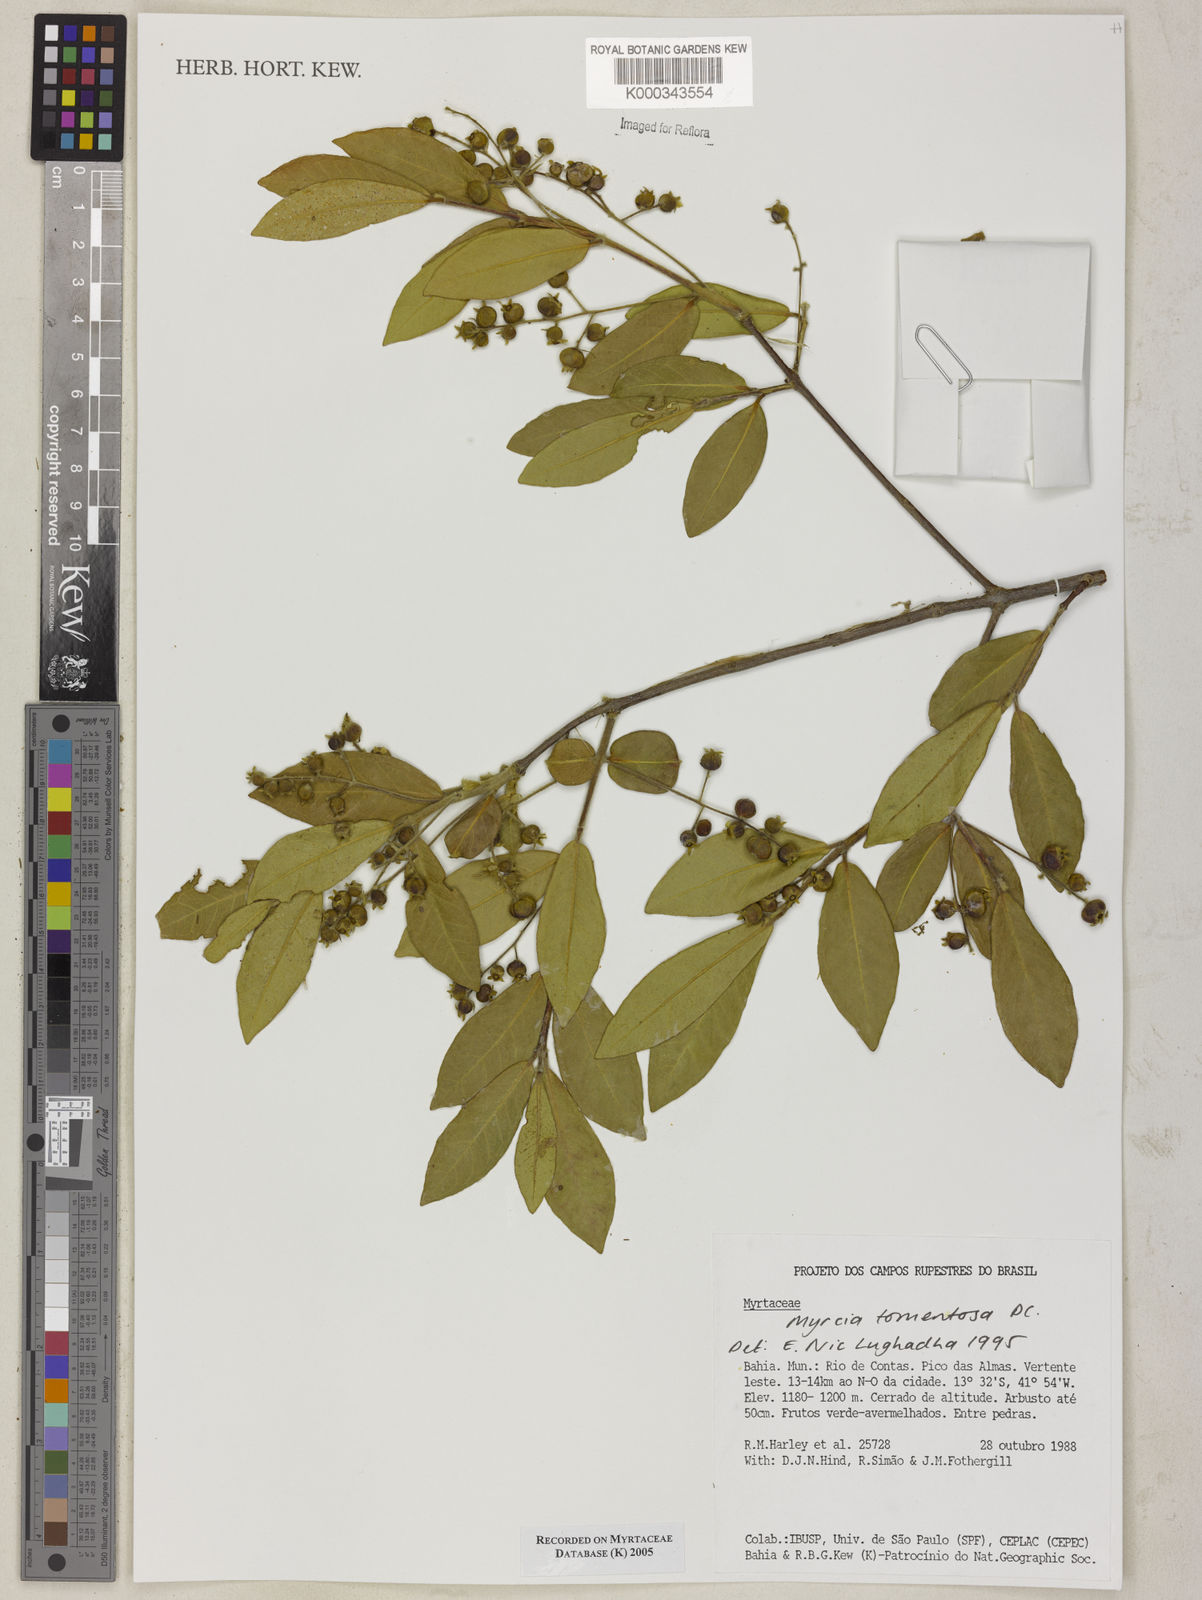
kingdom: Plantae
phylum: Tracheophyta
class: Magnoliopsida
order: Myrtales
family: Myrtaceae
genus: Myrcia
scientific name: Myrcia tomentosa
